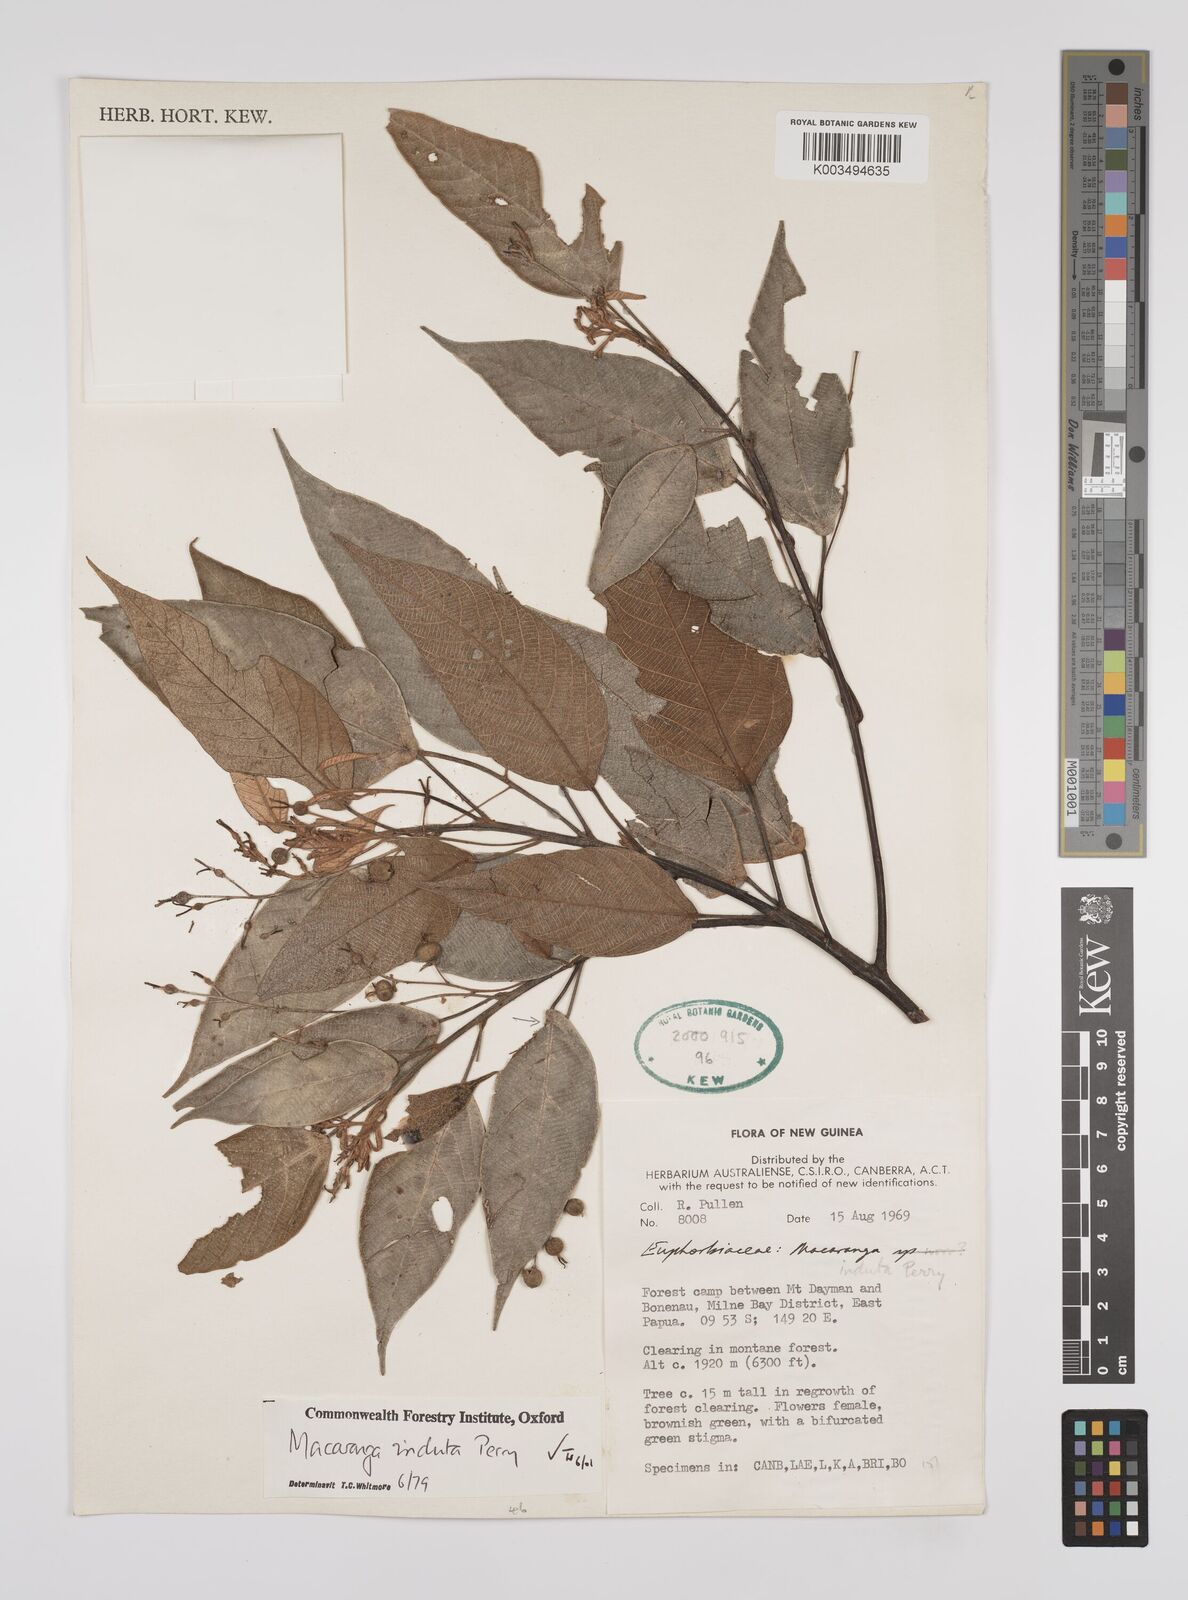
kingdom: Plantae
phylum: Tracheophyta
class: Magnoliopsida
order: Malpighiales
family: Euphorbiaceae
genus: Macaranga
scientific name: Macaranga induta
